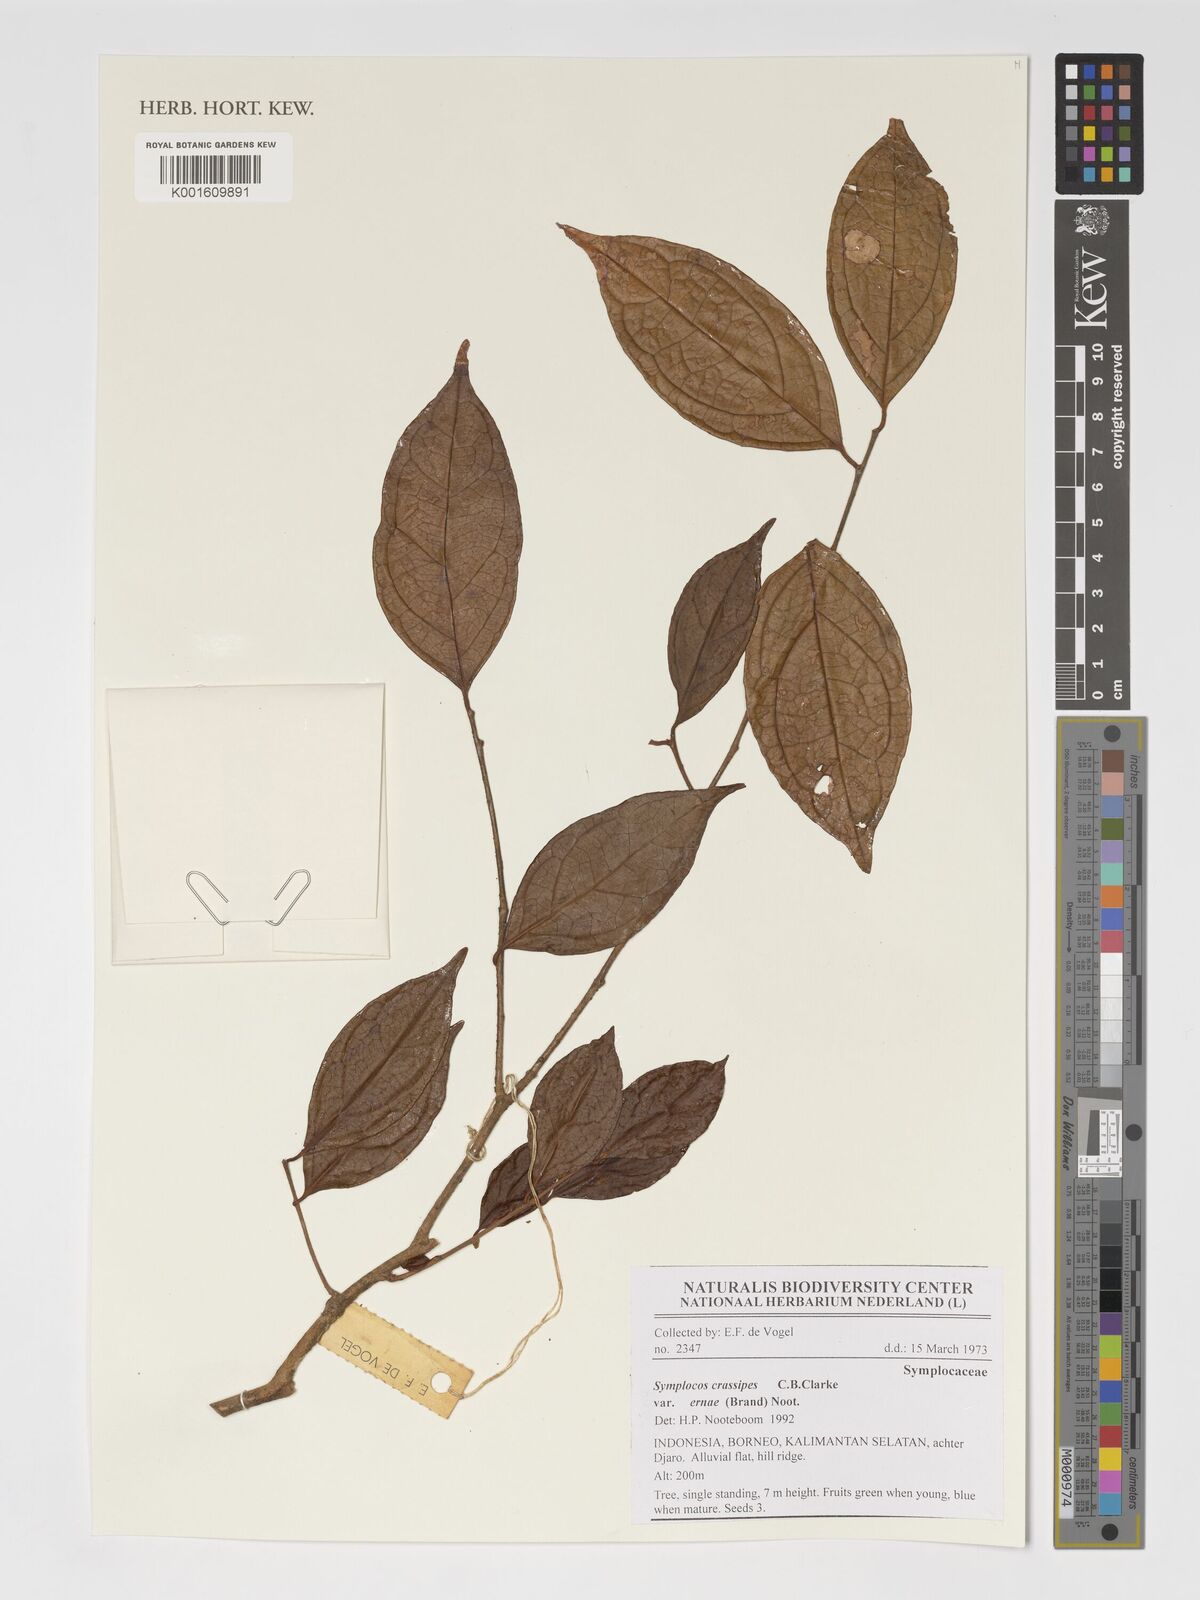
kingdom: Plantae
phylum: Tracheophyta
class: Magnoliopsida
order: Ericales
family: Symplocaceae
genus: Symplocos
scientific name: Symplocos crassipes
